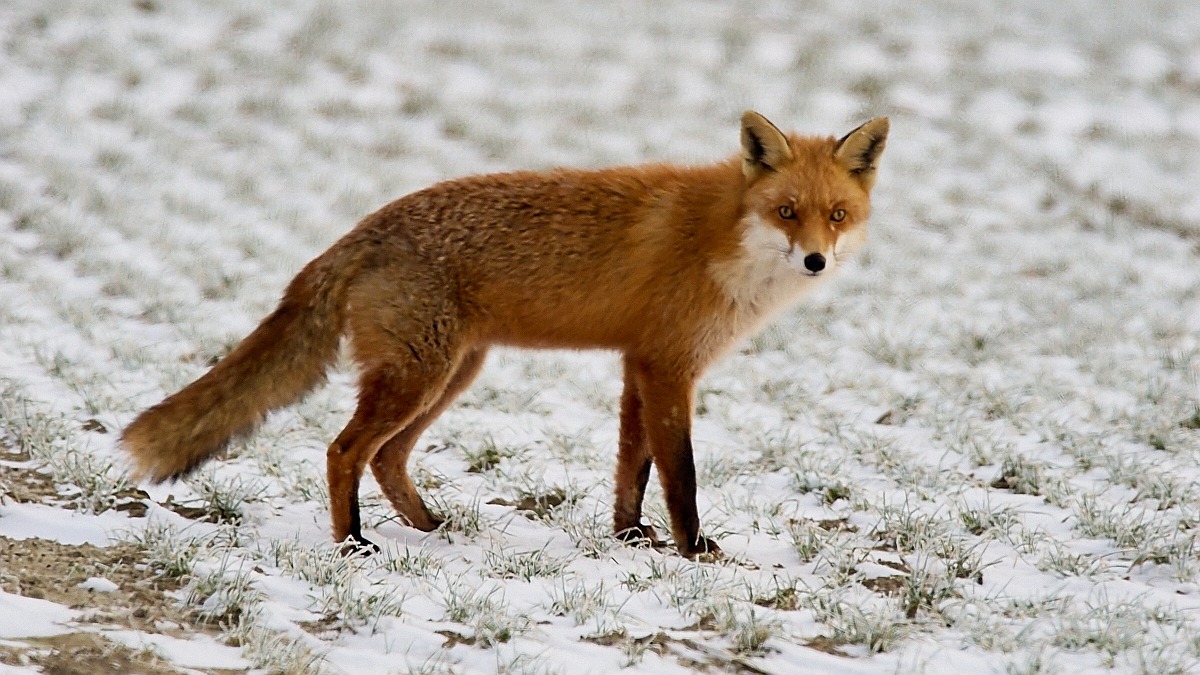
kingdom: Animalia
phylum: Chordata
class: Mammalia
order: Carnivora
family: Canidae
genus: Vulpes
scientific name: Vulpes vulpes
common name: Ræv
